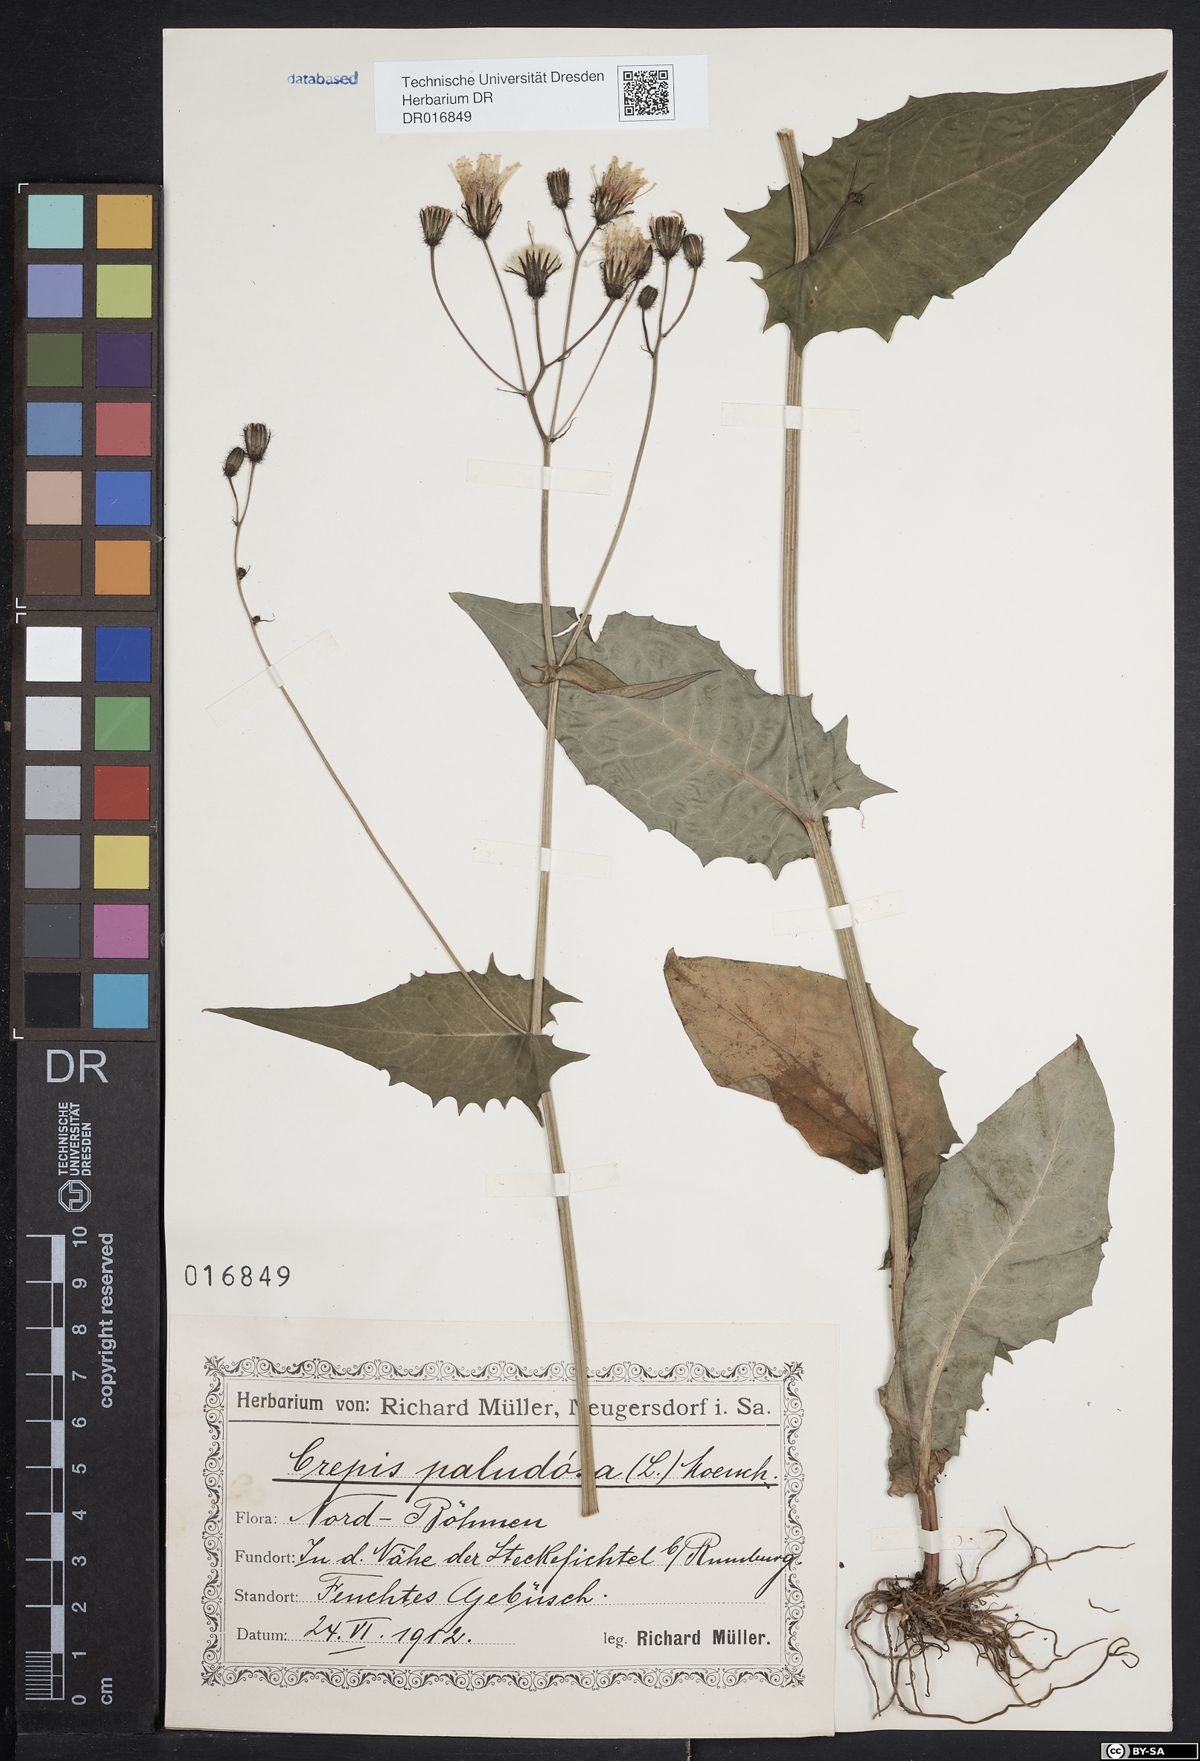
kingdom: Plantae
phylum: Tracheophyta
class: Magnoliopsida
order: Asterales
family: Asteraceae
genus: Crepis
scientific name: Crepis paludosa
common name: Marsh hawk's-beard
